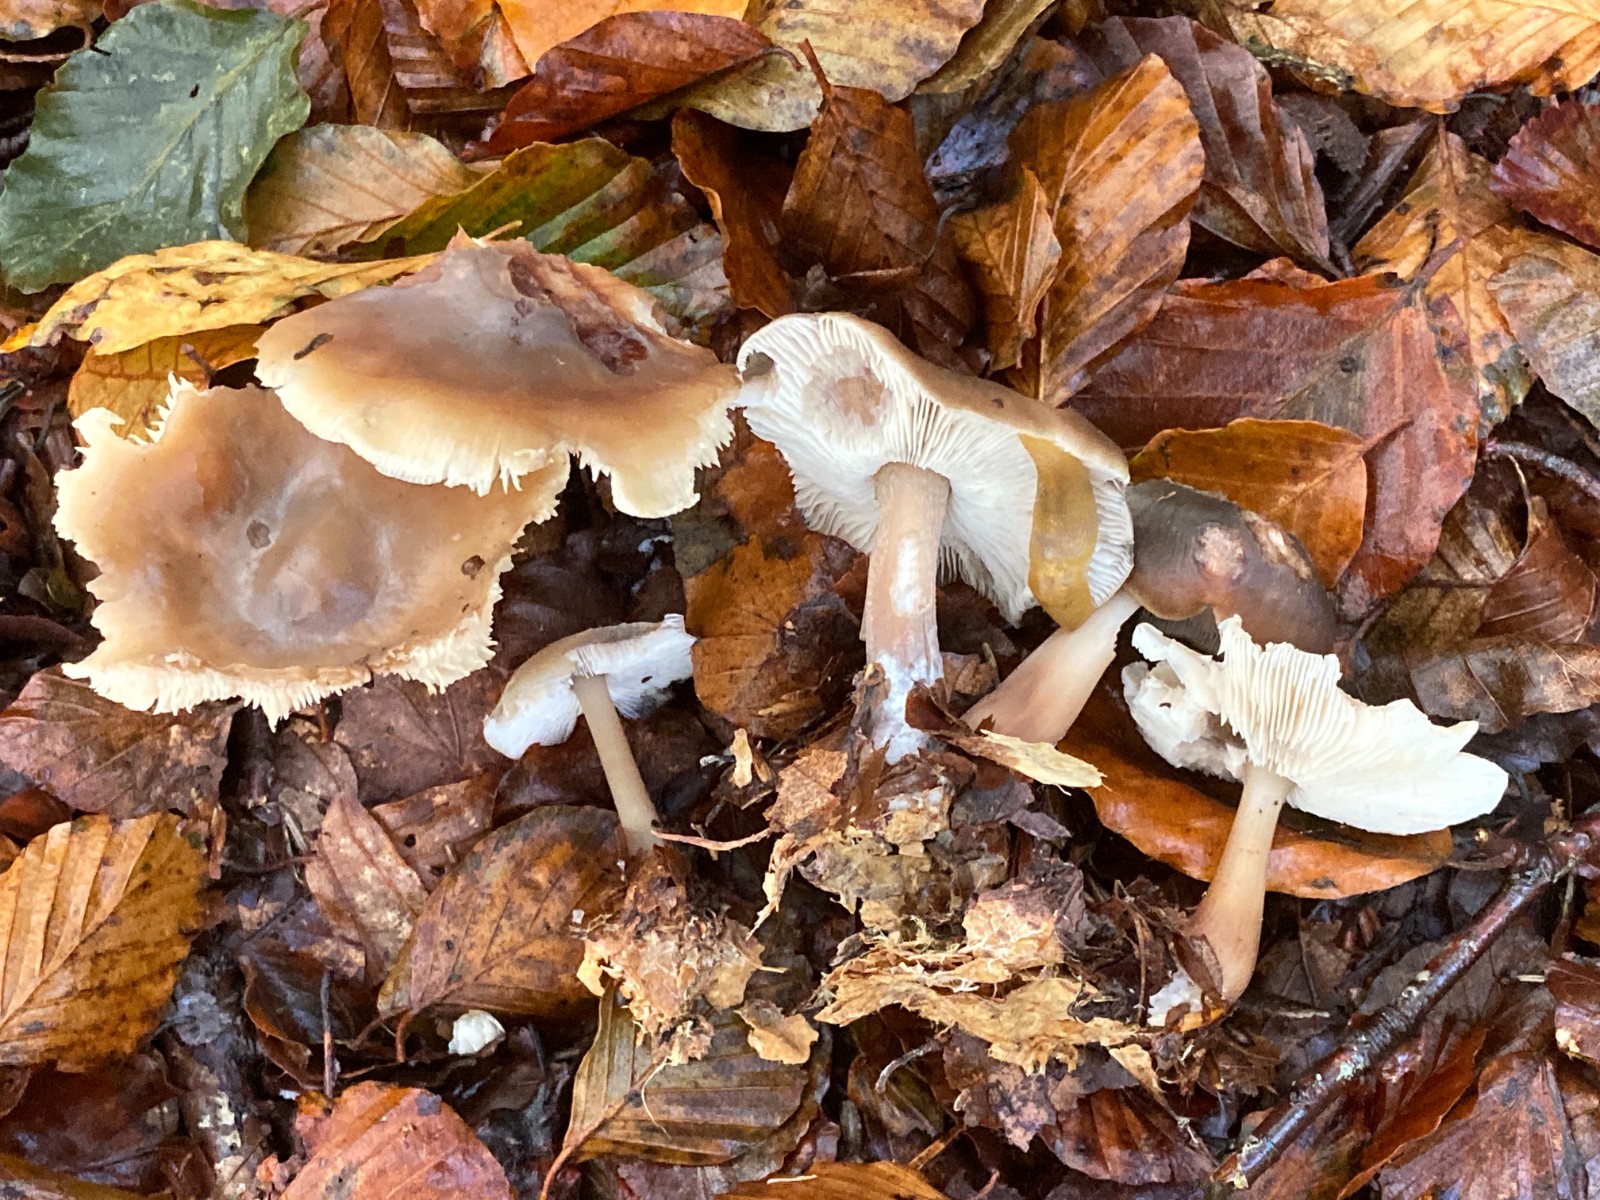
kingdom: Fungi
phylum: Basidiomycota
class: Agaricomycetes
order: Agaricales
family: Omphalotaceae
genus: Rhodocollybia
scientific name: Rhodocollybia
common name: fladhat
